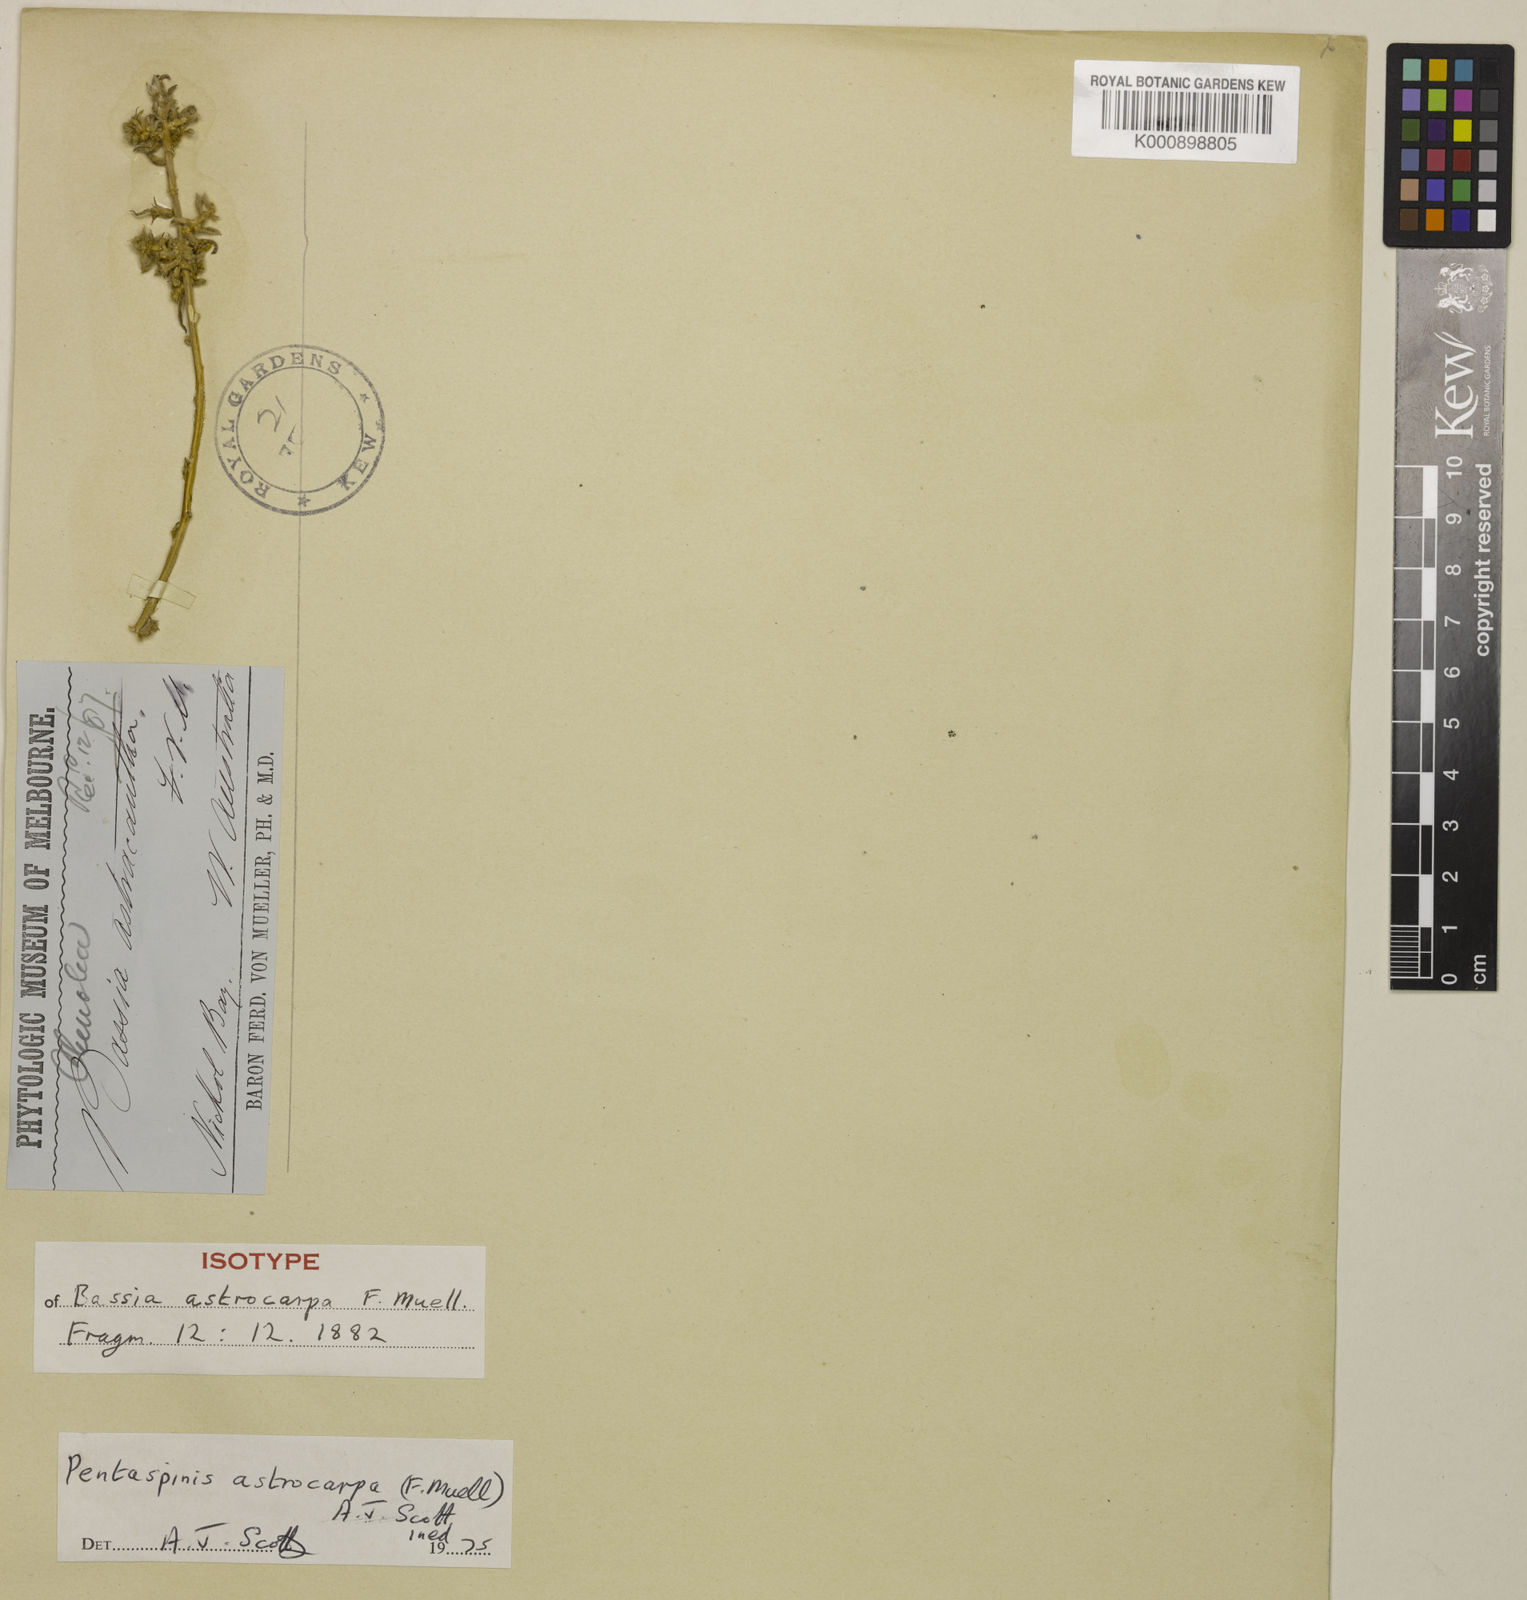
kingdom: Plantae
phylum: Tracheophyta
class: Magnoliopsida
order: Caryophyllales
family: Amaranthaceae
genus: Neobassia
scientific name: Neobassia astrocarpa
